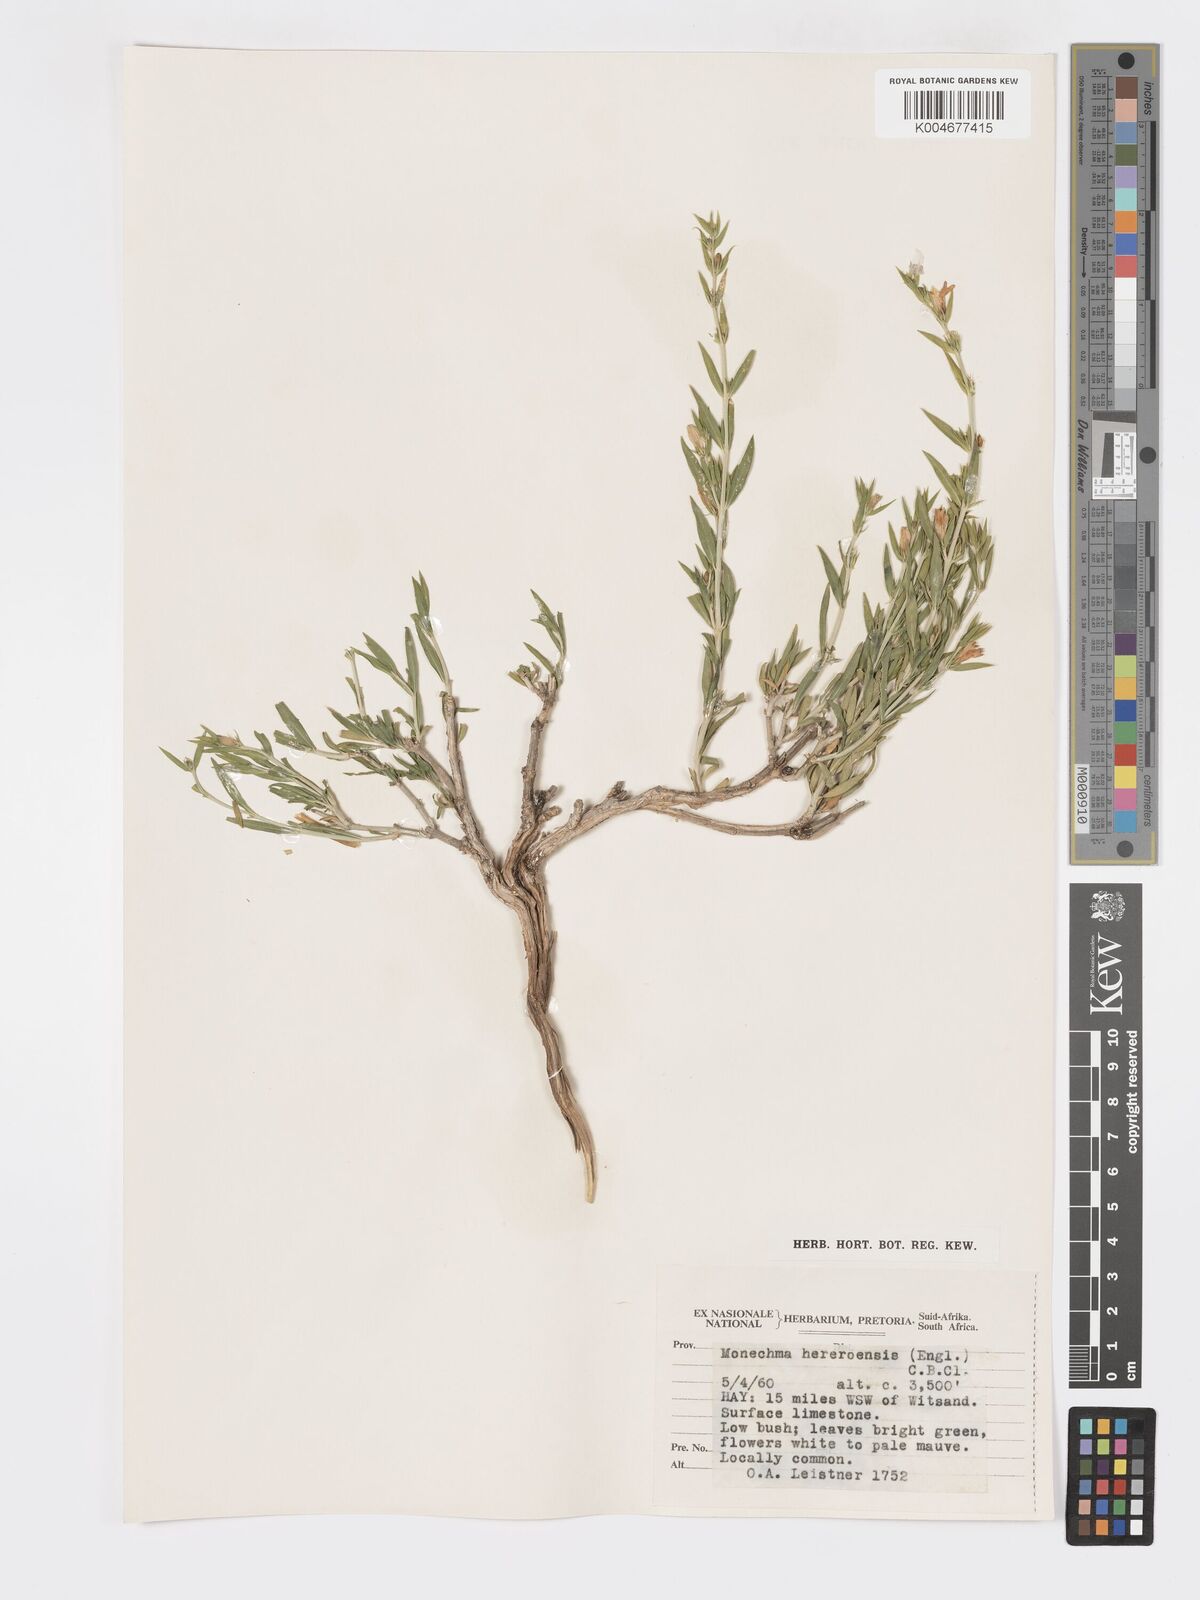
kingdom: Plantae
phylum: Tracheophyta
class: Magnoliopsida
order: Lamiales
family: Acanthaceae
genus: Pogonospermum
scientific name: Pogonospermum
